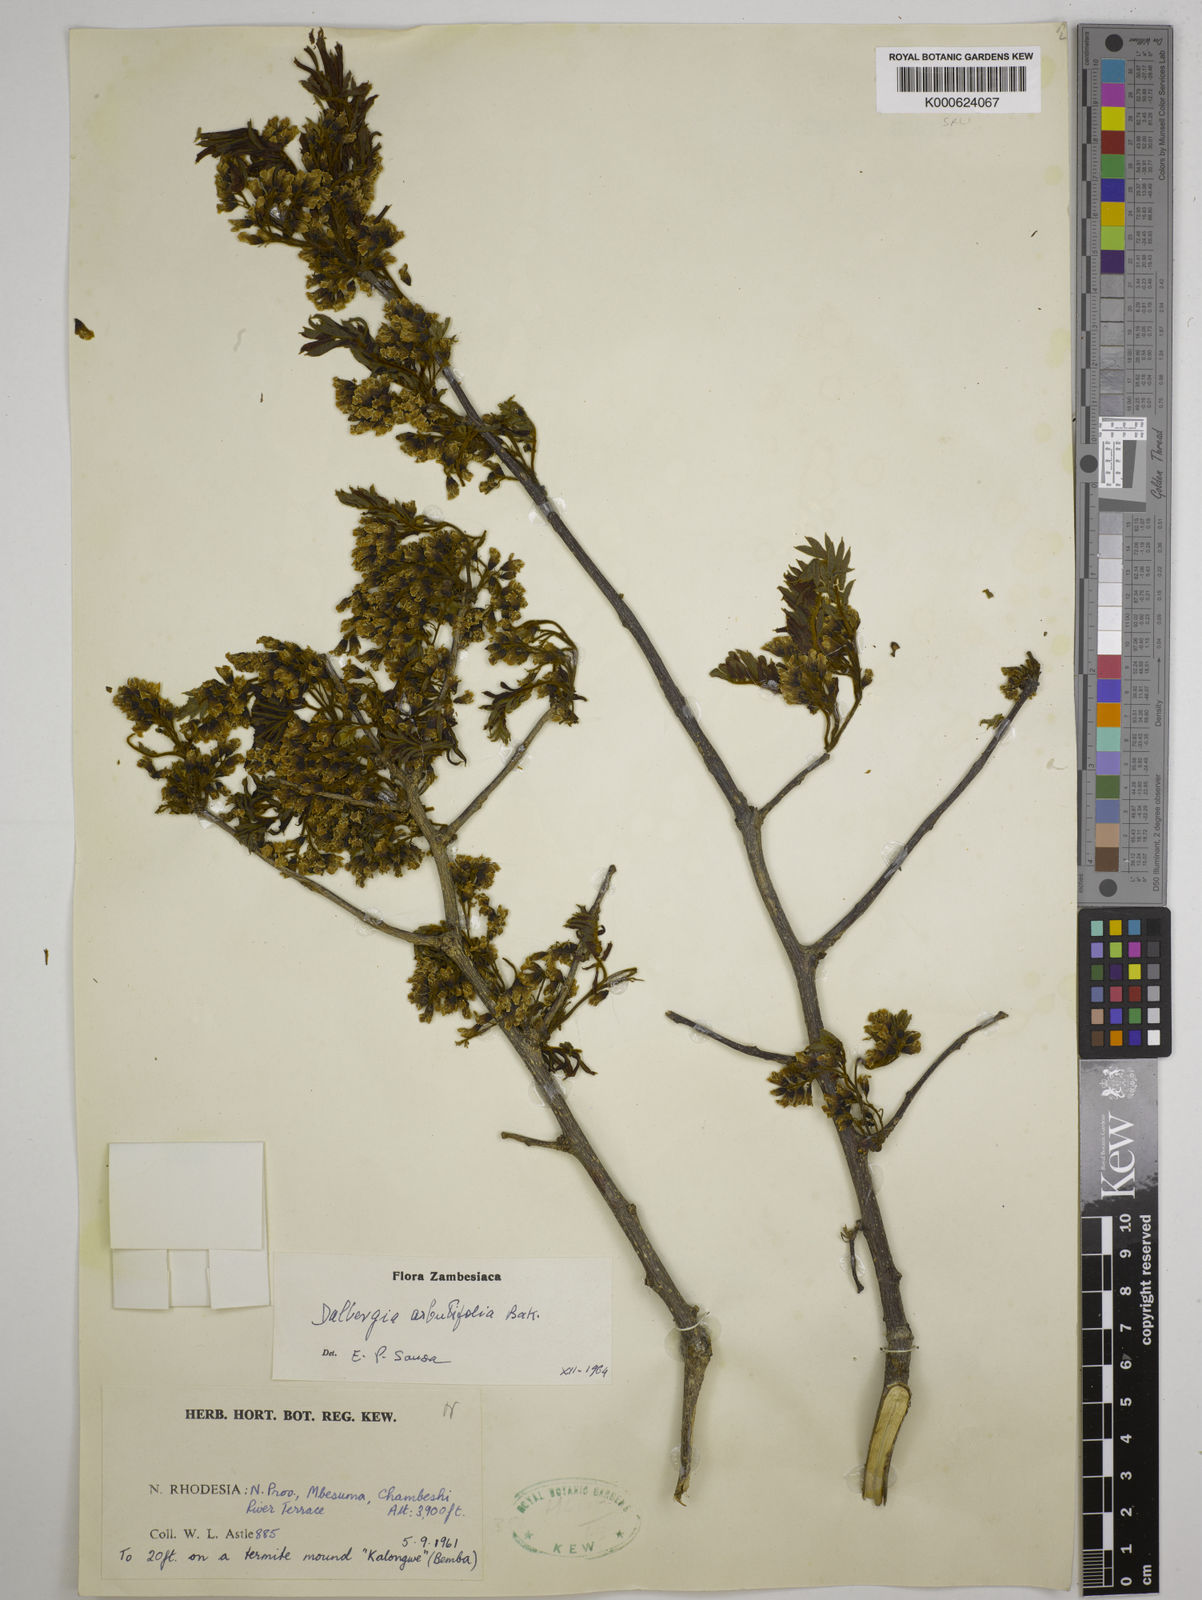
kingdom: Plantae
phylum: Tracheophyta
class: Magnoliopsida
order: Fabales
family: Fabaceae
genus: Dalbergia
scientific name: Dalbergia arbutifolia
